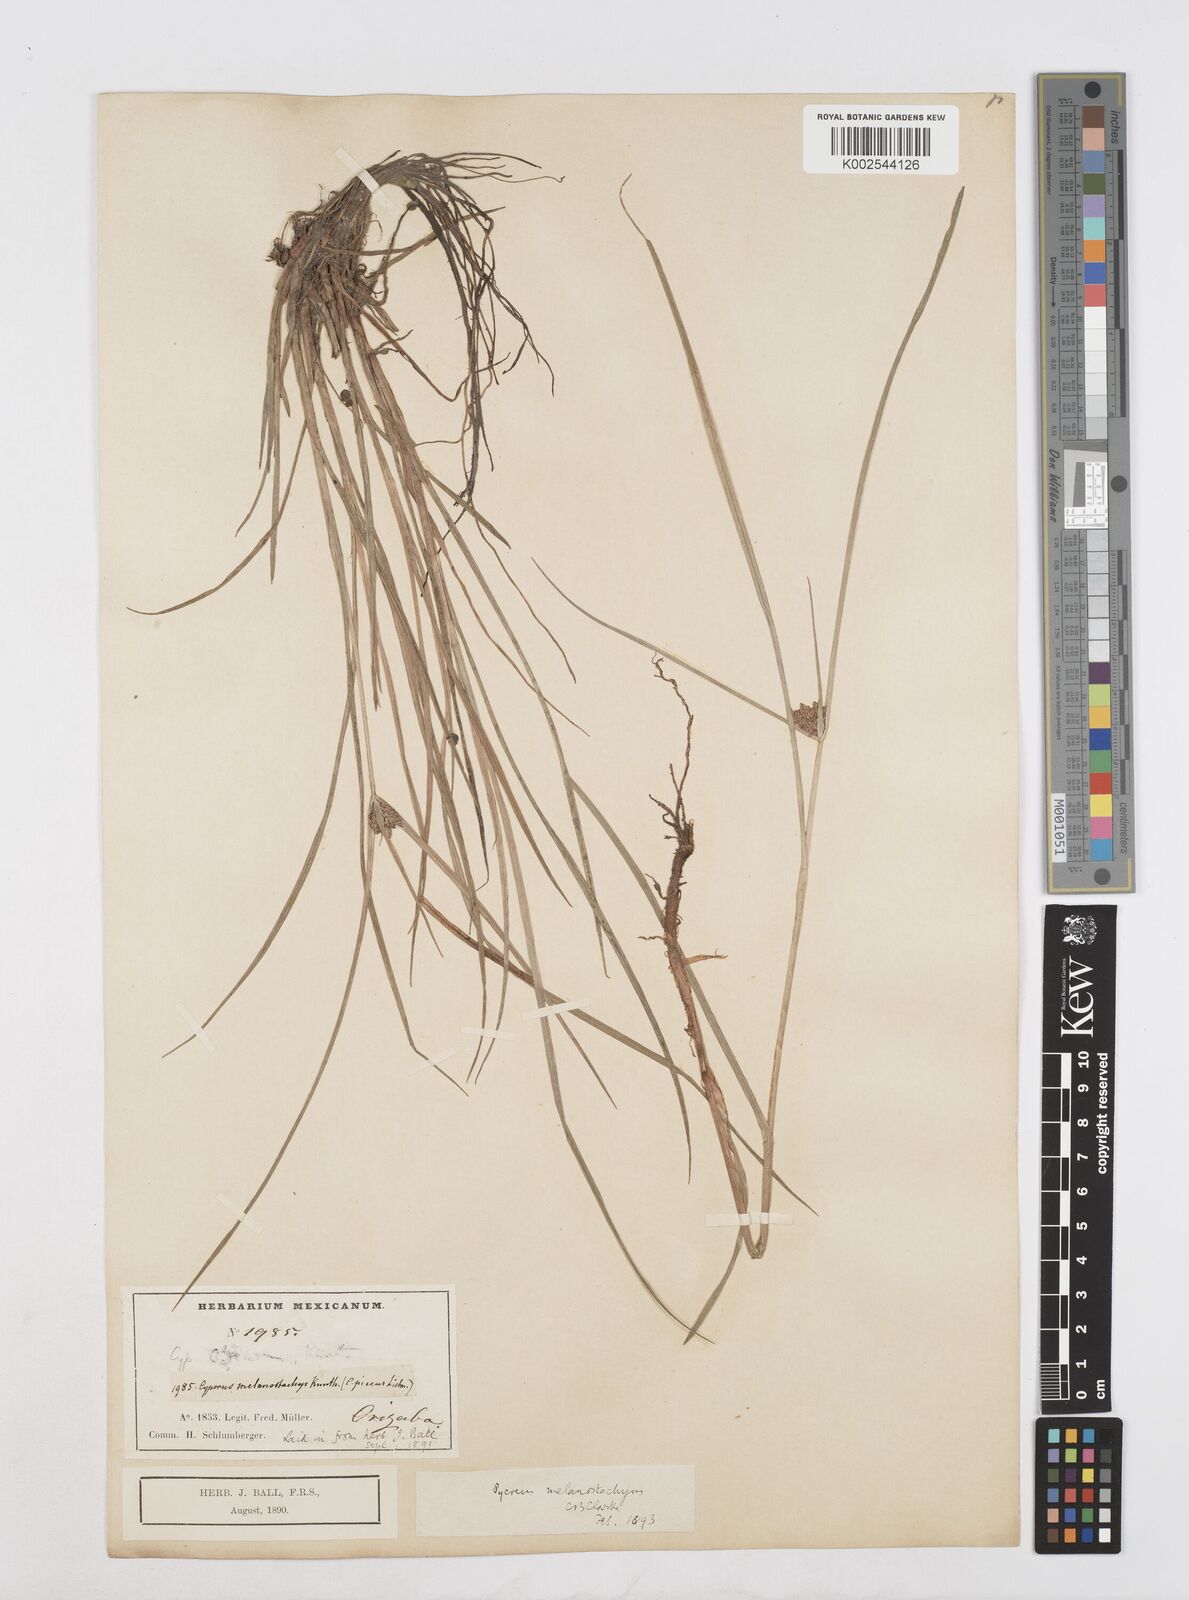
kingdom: Plantae
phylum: Tracheophyta
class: Liliopsida
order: Poales
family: Cyperaceae
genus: Cyperus
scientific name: Cyperus melanostachyus
